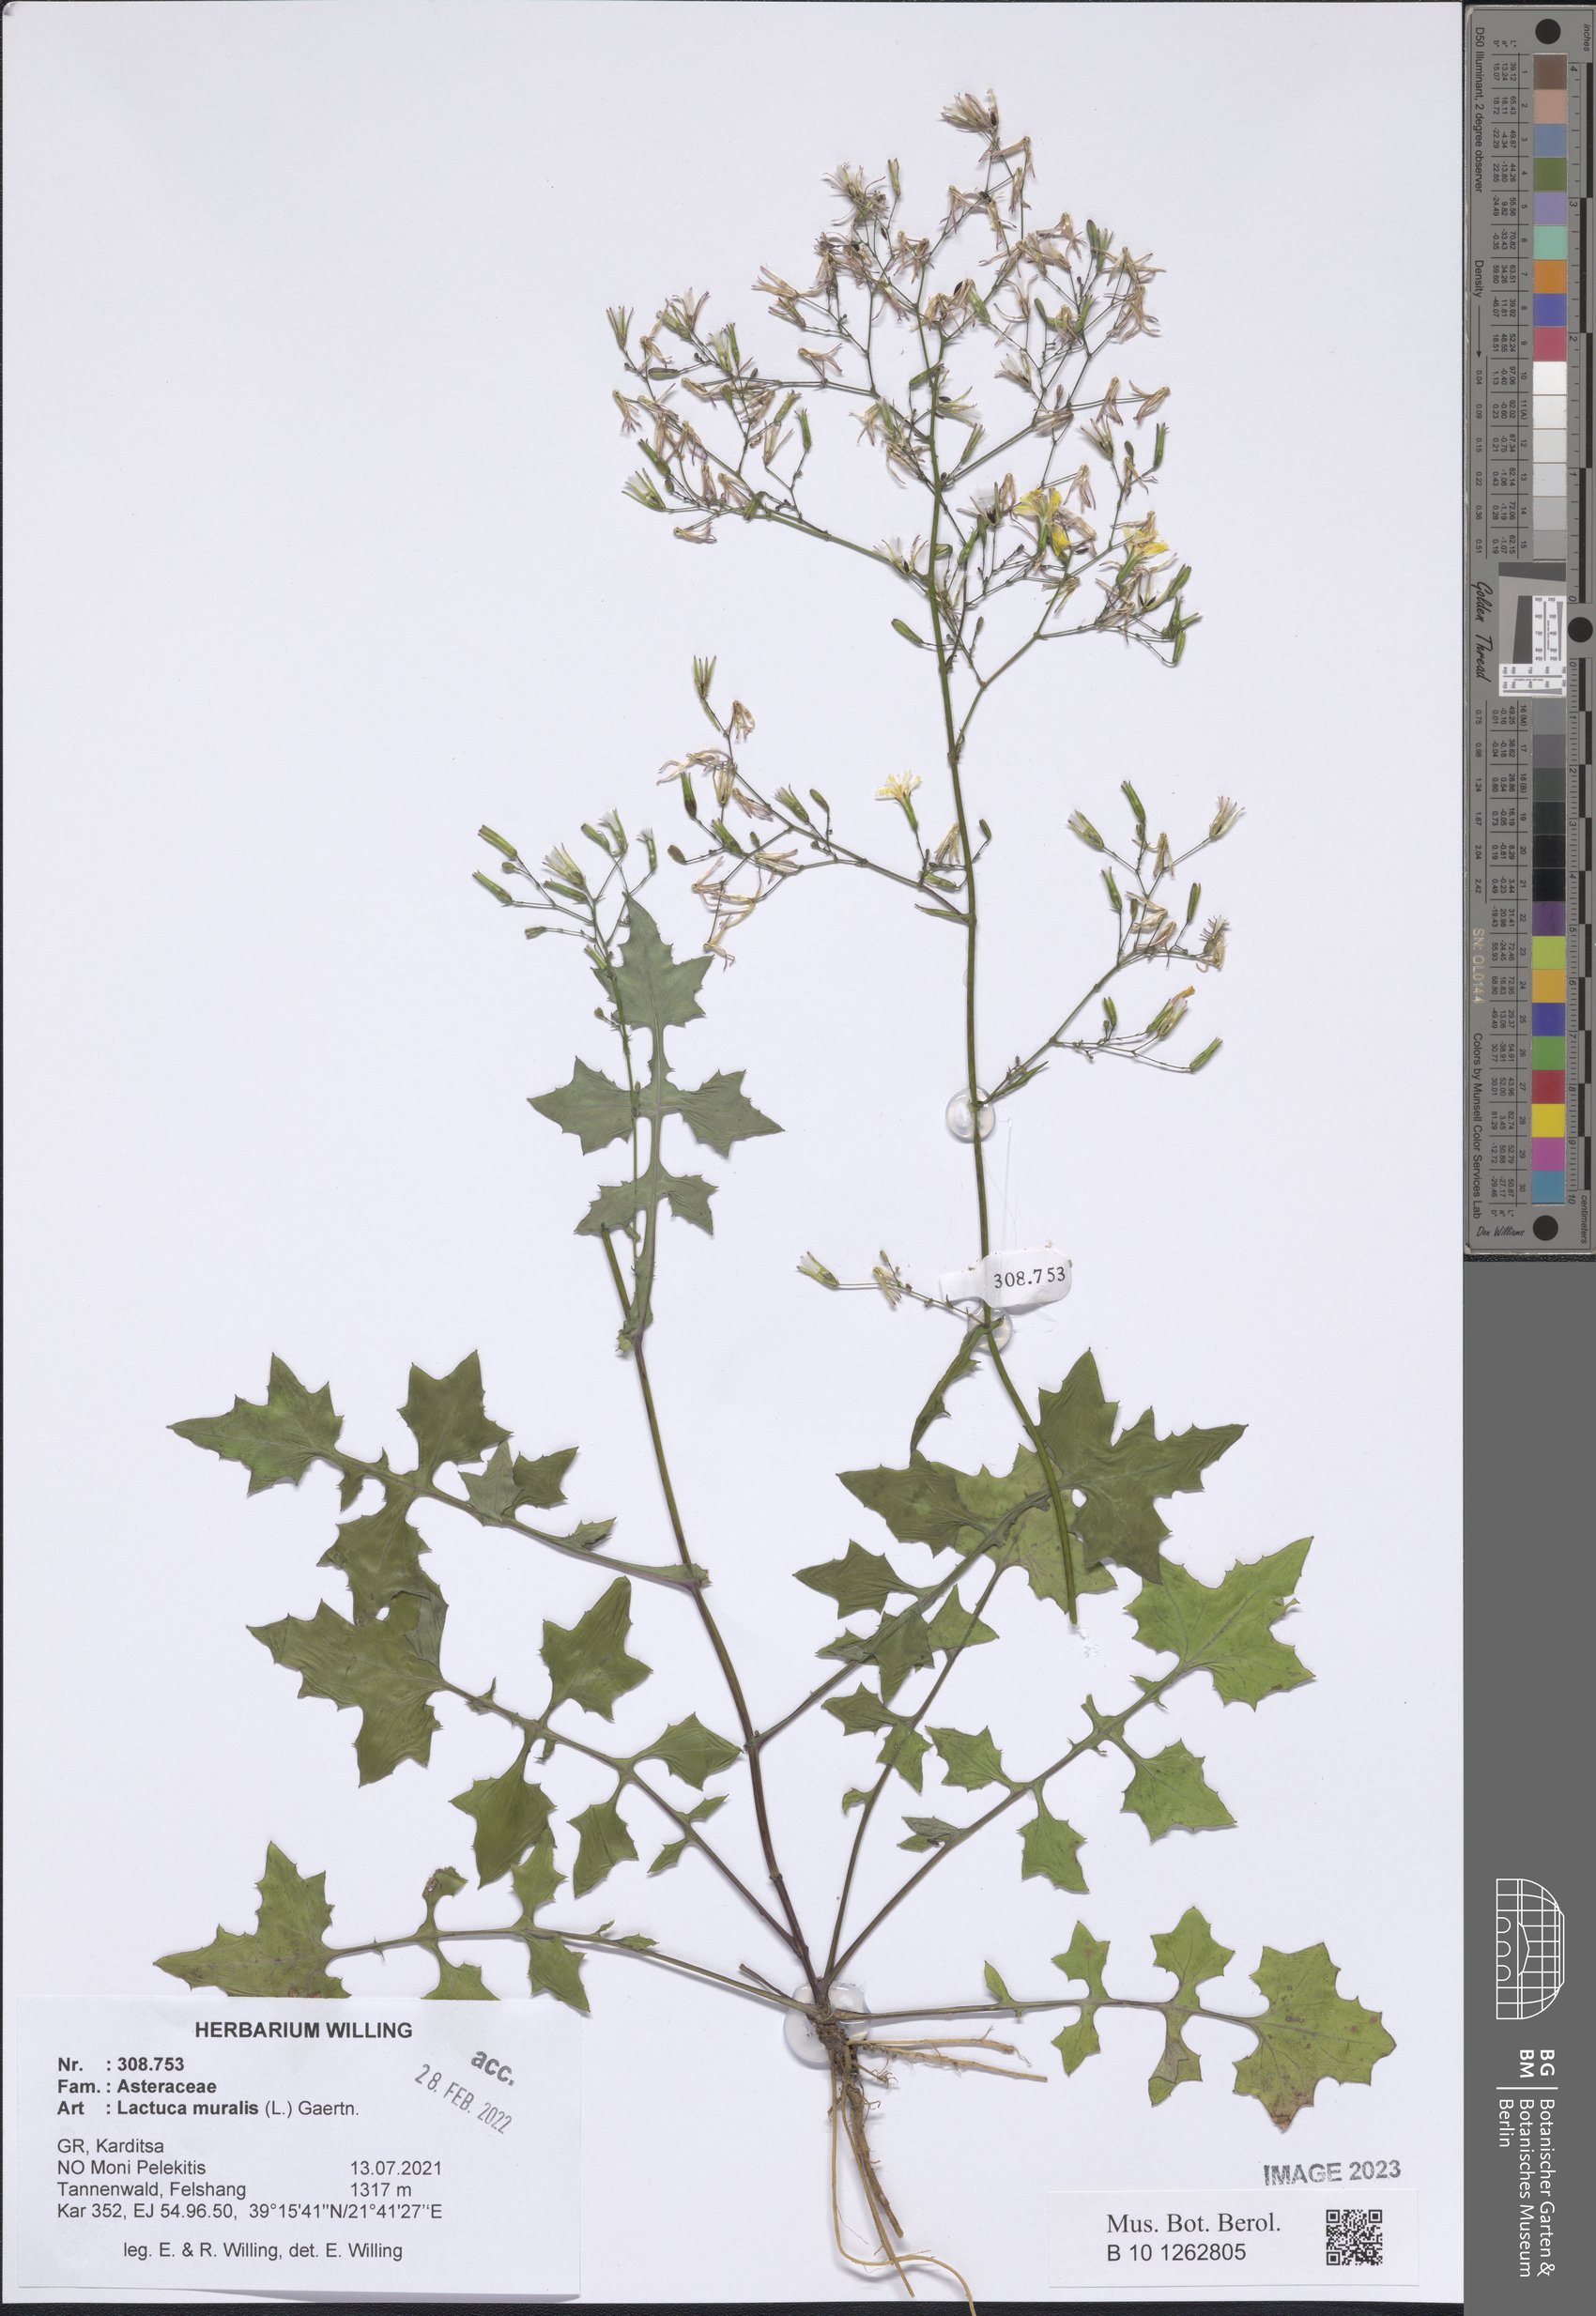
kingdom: Plantae
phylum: Tracheophyta
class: Magnoliopsida
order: Asterales
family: Asteraceae
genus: Mycelis
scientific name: Mycelis muralis
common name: Wall lettuce
